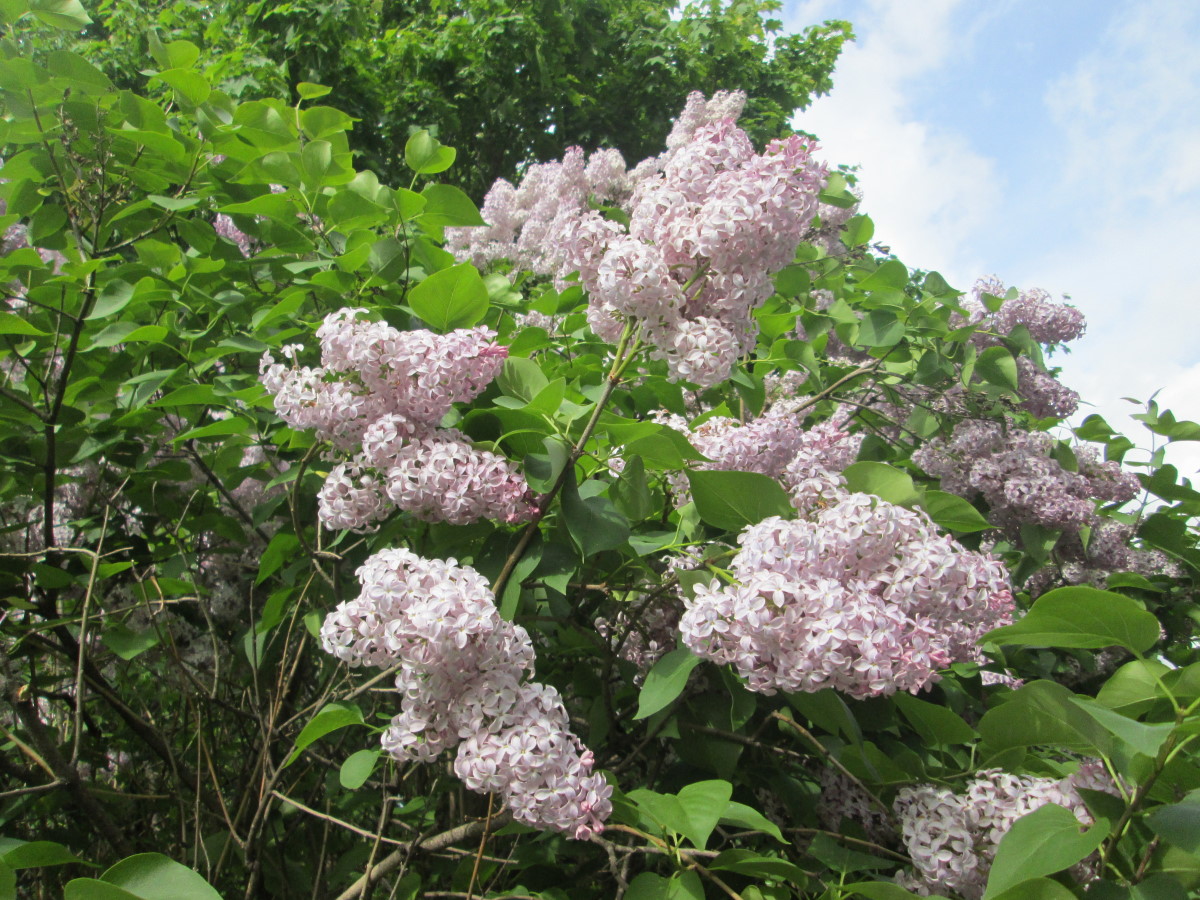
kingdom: Plantae
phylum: Tracheophyta
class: Magnoliopsida
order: Lamiales
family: Oleaceae
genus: Syringa
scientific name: Syringa vulgaris
